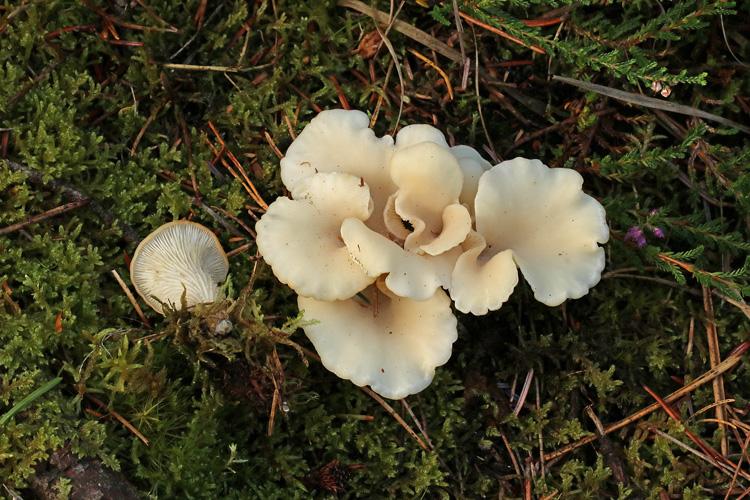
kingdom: Fungi
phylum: Basidiomycota
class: Agaricomycetes
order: Agaricales
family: Marasmiaceae
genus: Pleurocybella
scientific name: Pleurocybella porrigens
